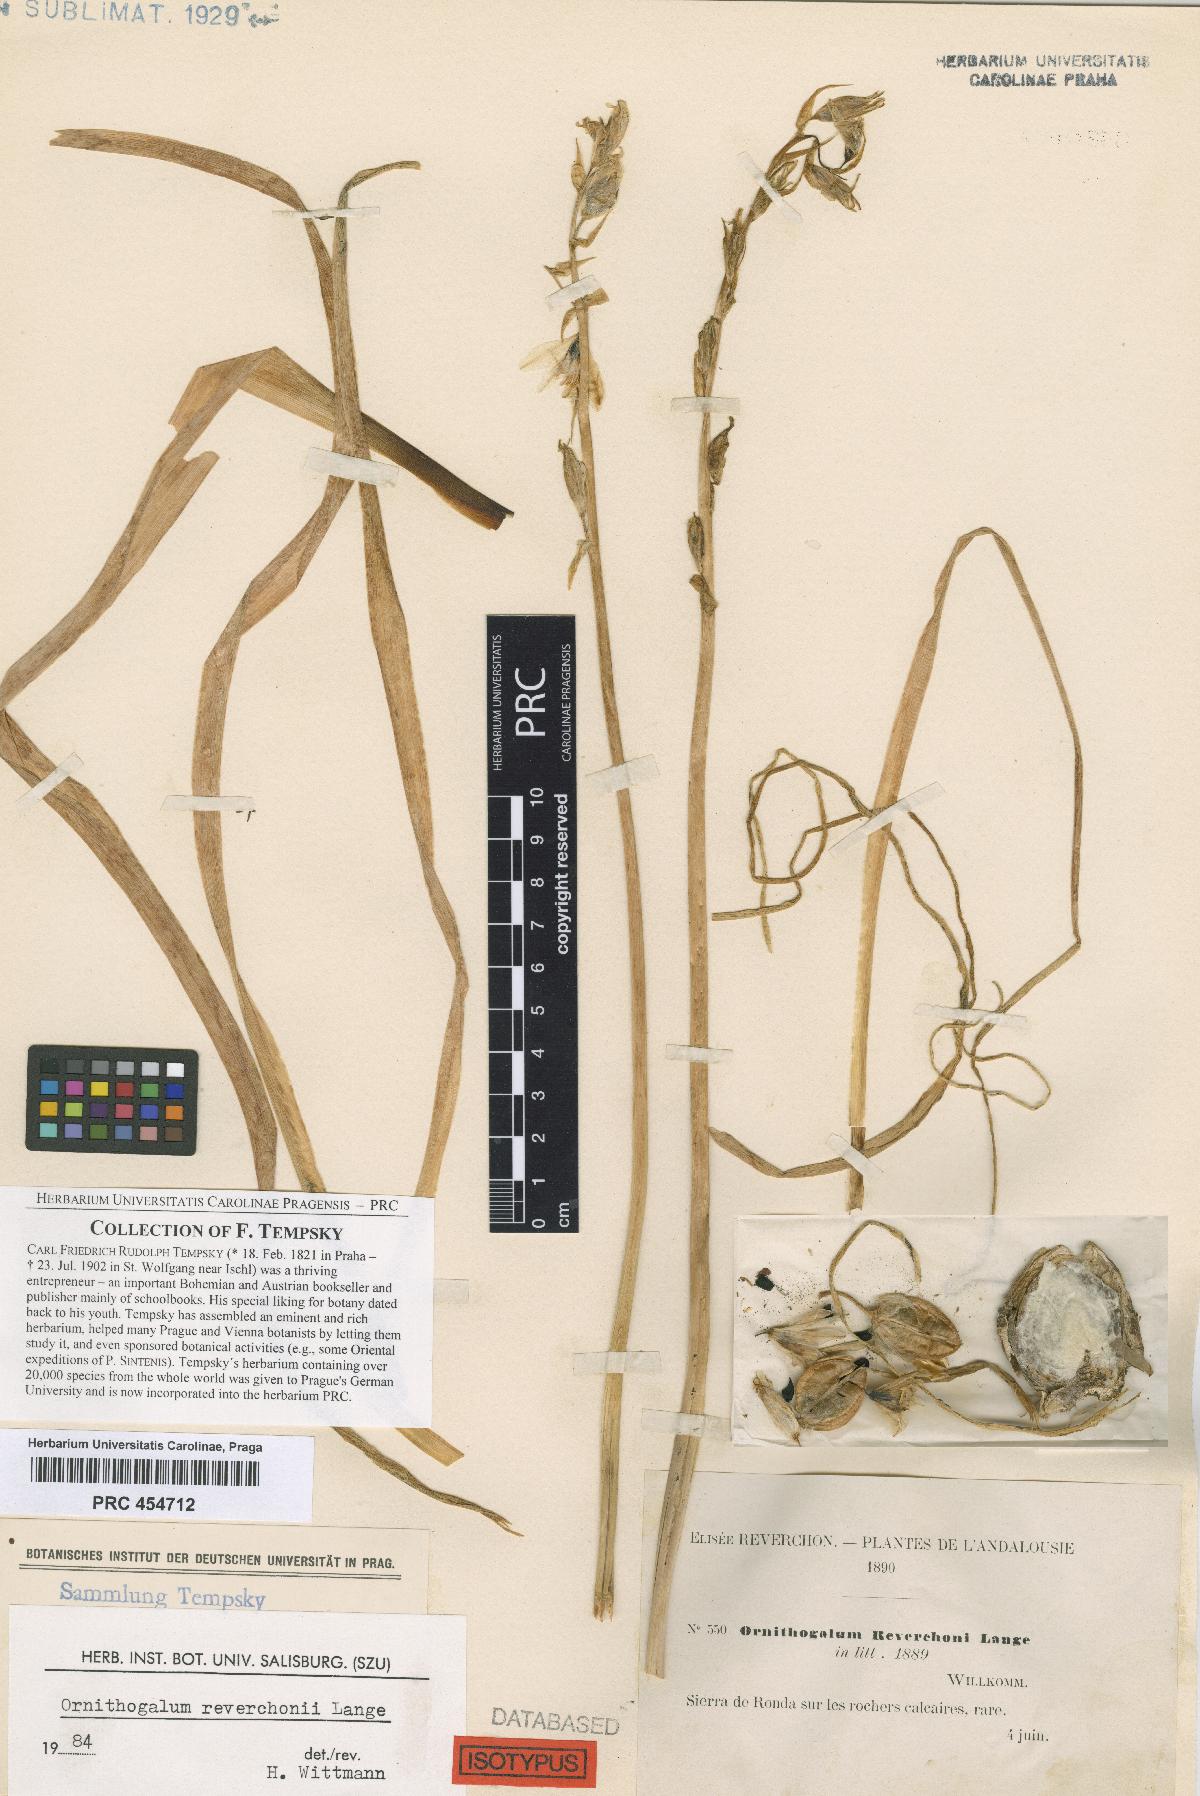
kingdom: Plantae
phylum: Tracheophyta
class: Liliopsida
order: Asparagales
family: Asparagaceae
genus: Ornithogalum
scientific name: Ornithogalum reverchonii
